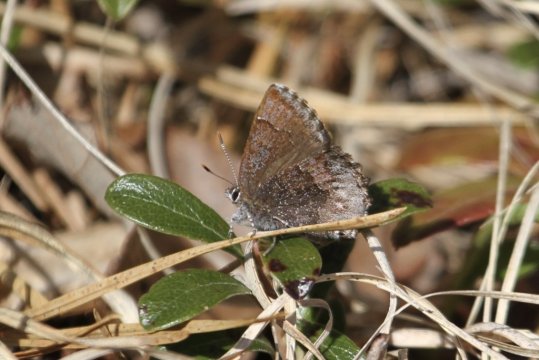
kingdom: Animalia
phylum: Arthropoda
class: Insecta
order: Lepidoptera
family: Lycaenidae
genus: Callophrys
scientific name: Callophrys polios
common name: Hoary Elfin
